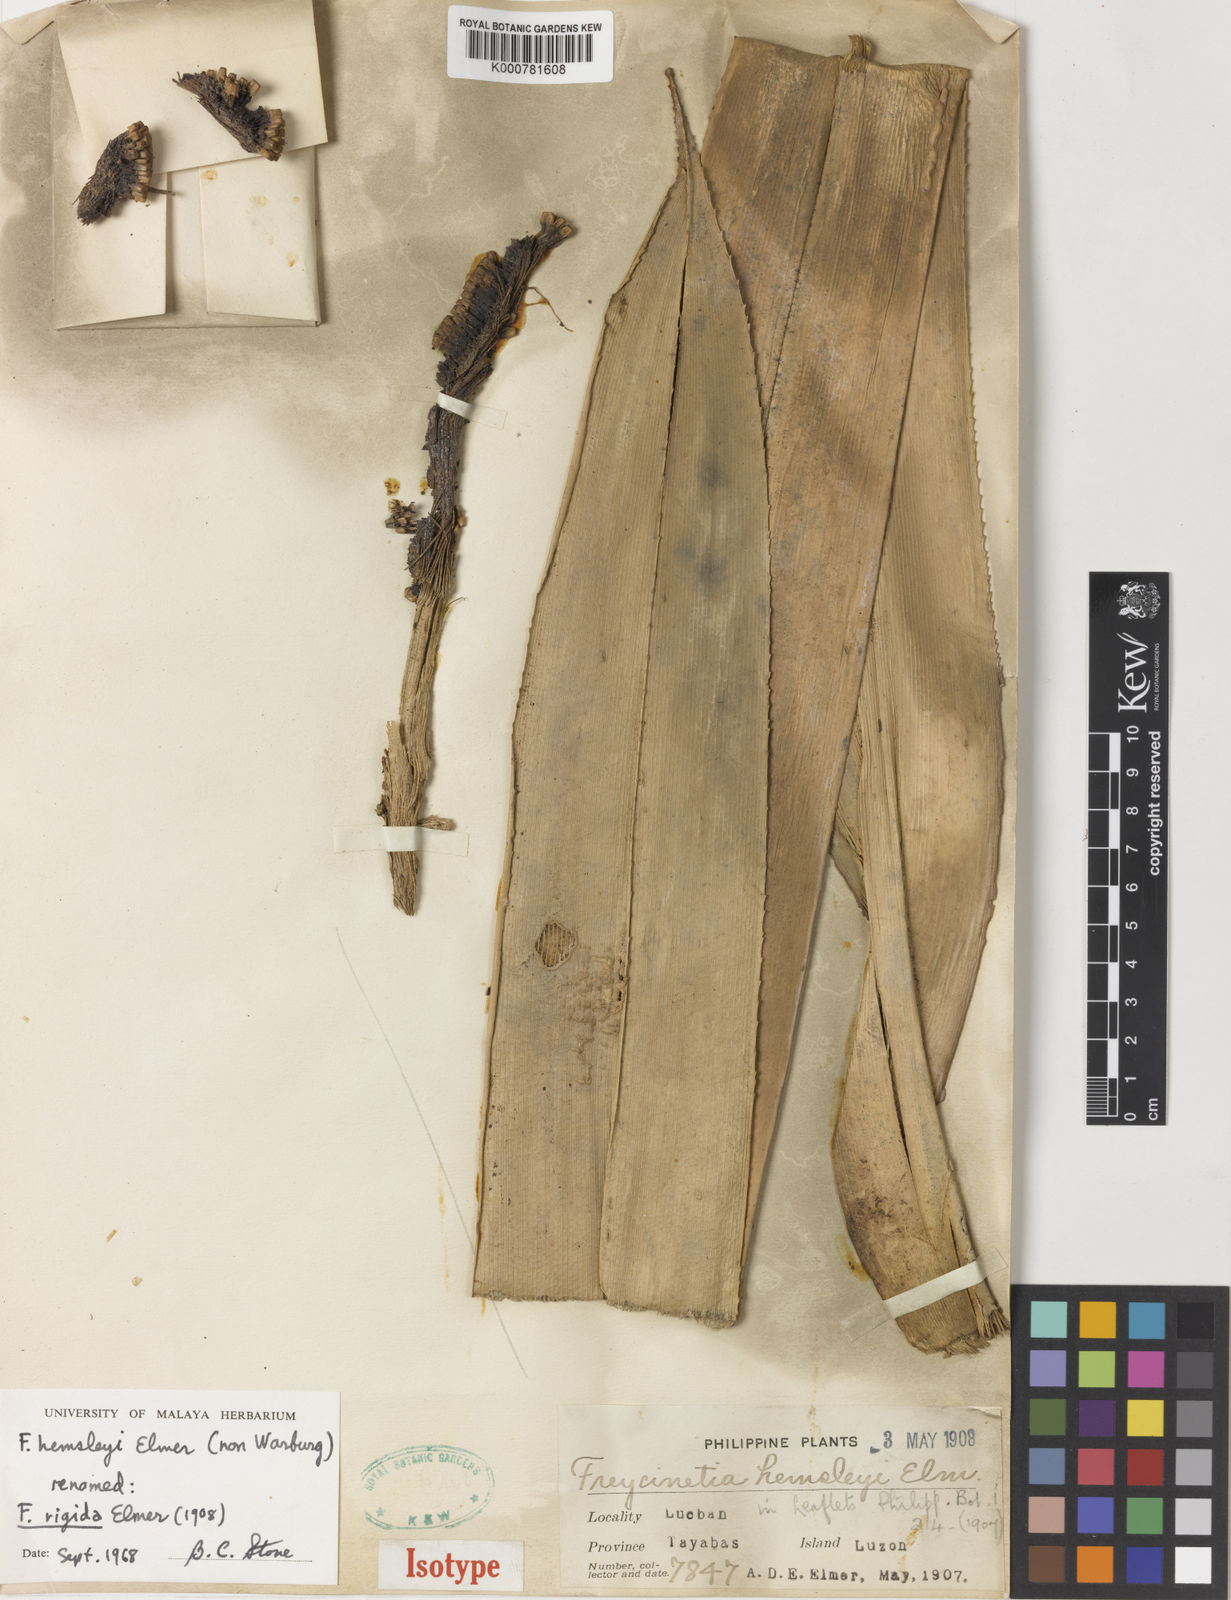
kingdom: Plantae
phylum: Tracheophyta
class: Liliopsida
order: Pandanales
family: Pandanaceae
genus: Freycinetia
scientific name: Freycinetia rigida
